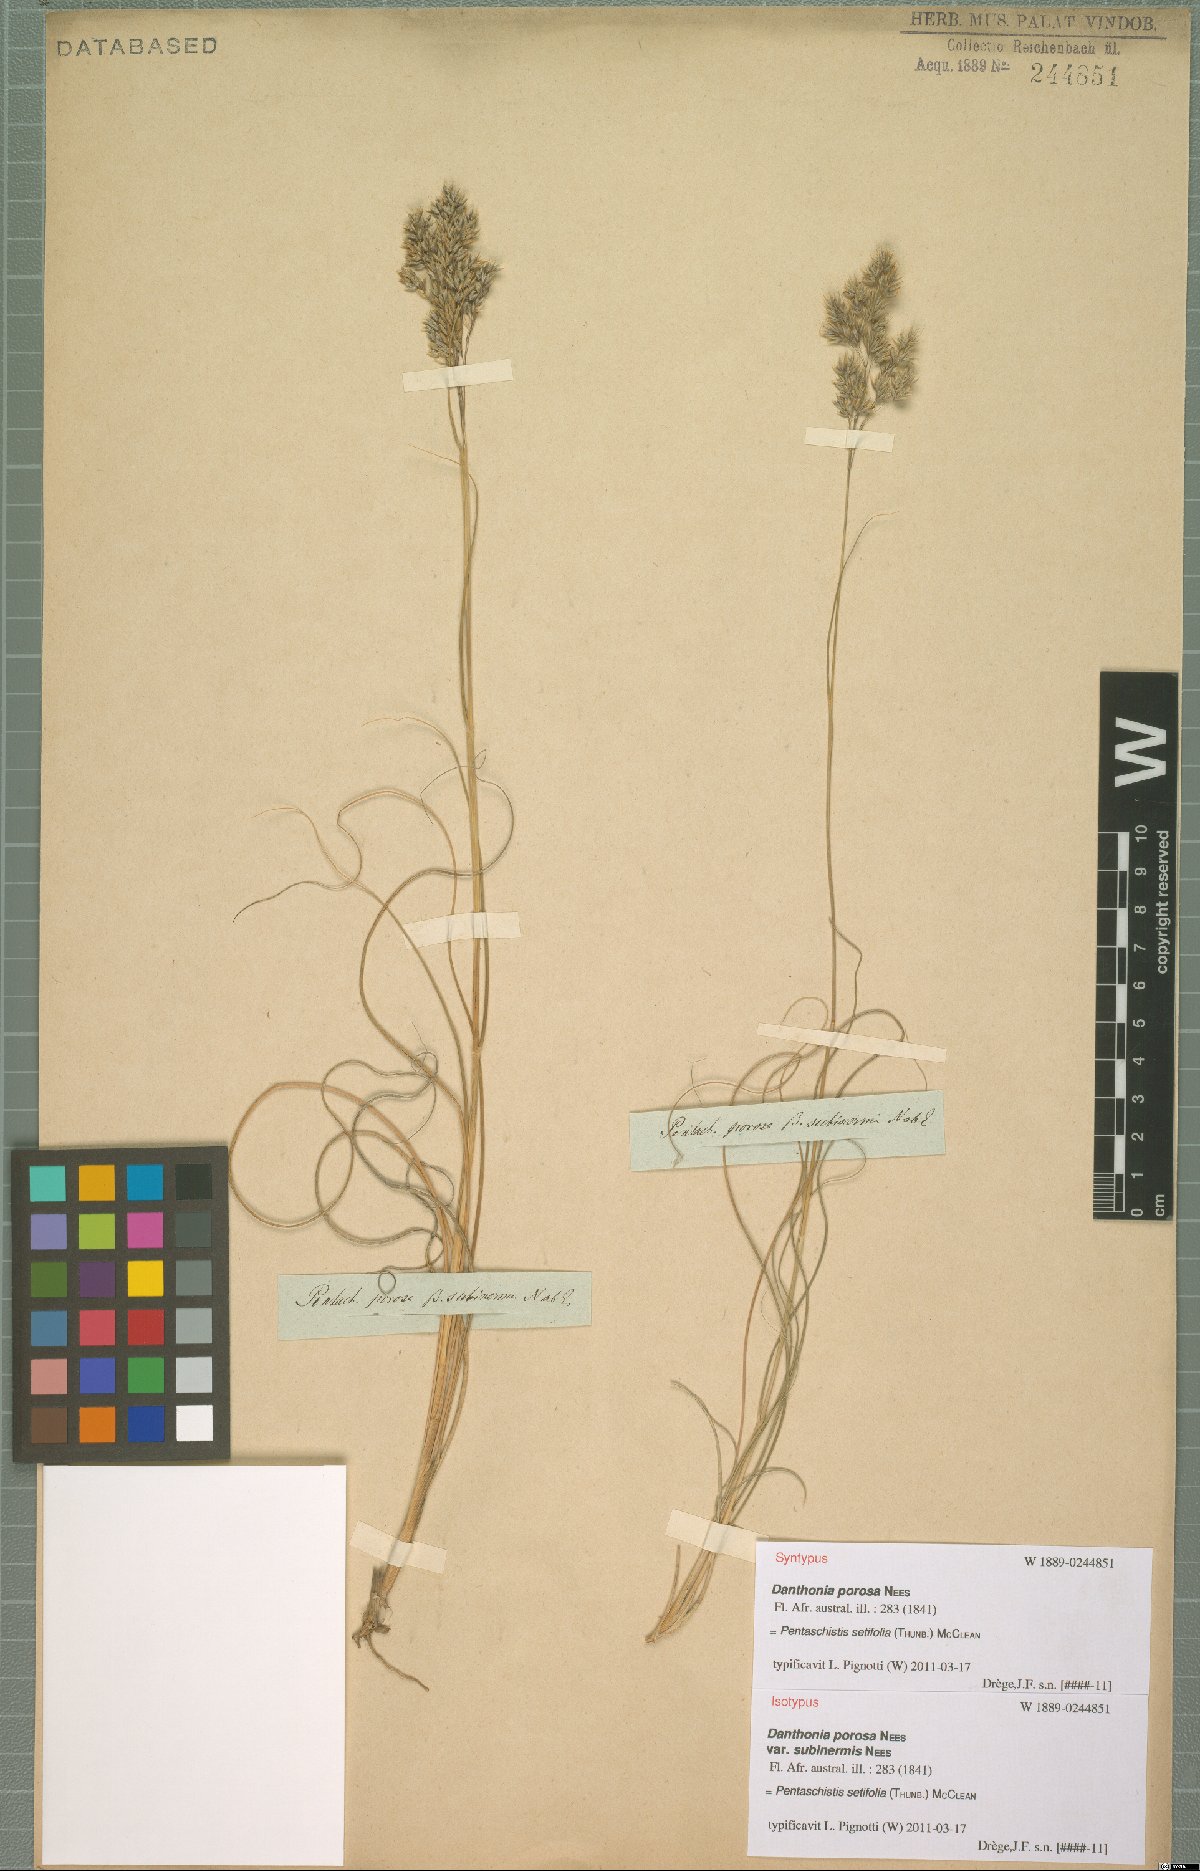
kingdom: Plantae
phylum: Tracheophyta
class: Liliopsida
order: Poales
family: Poaceae
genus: Pentameris
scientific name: Pentameris setifolia
